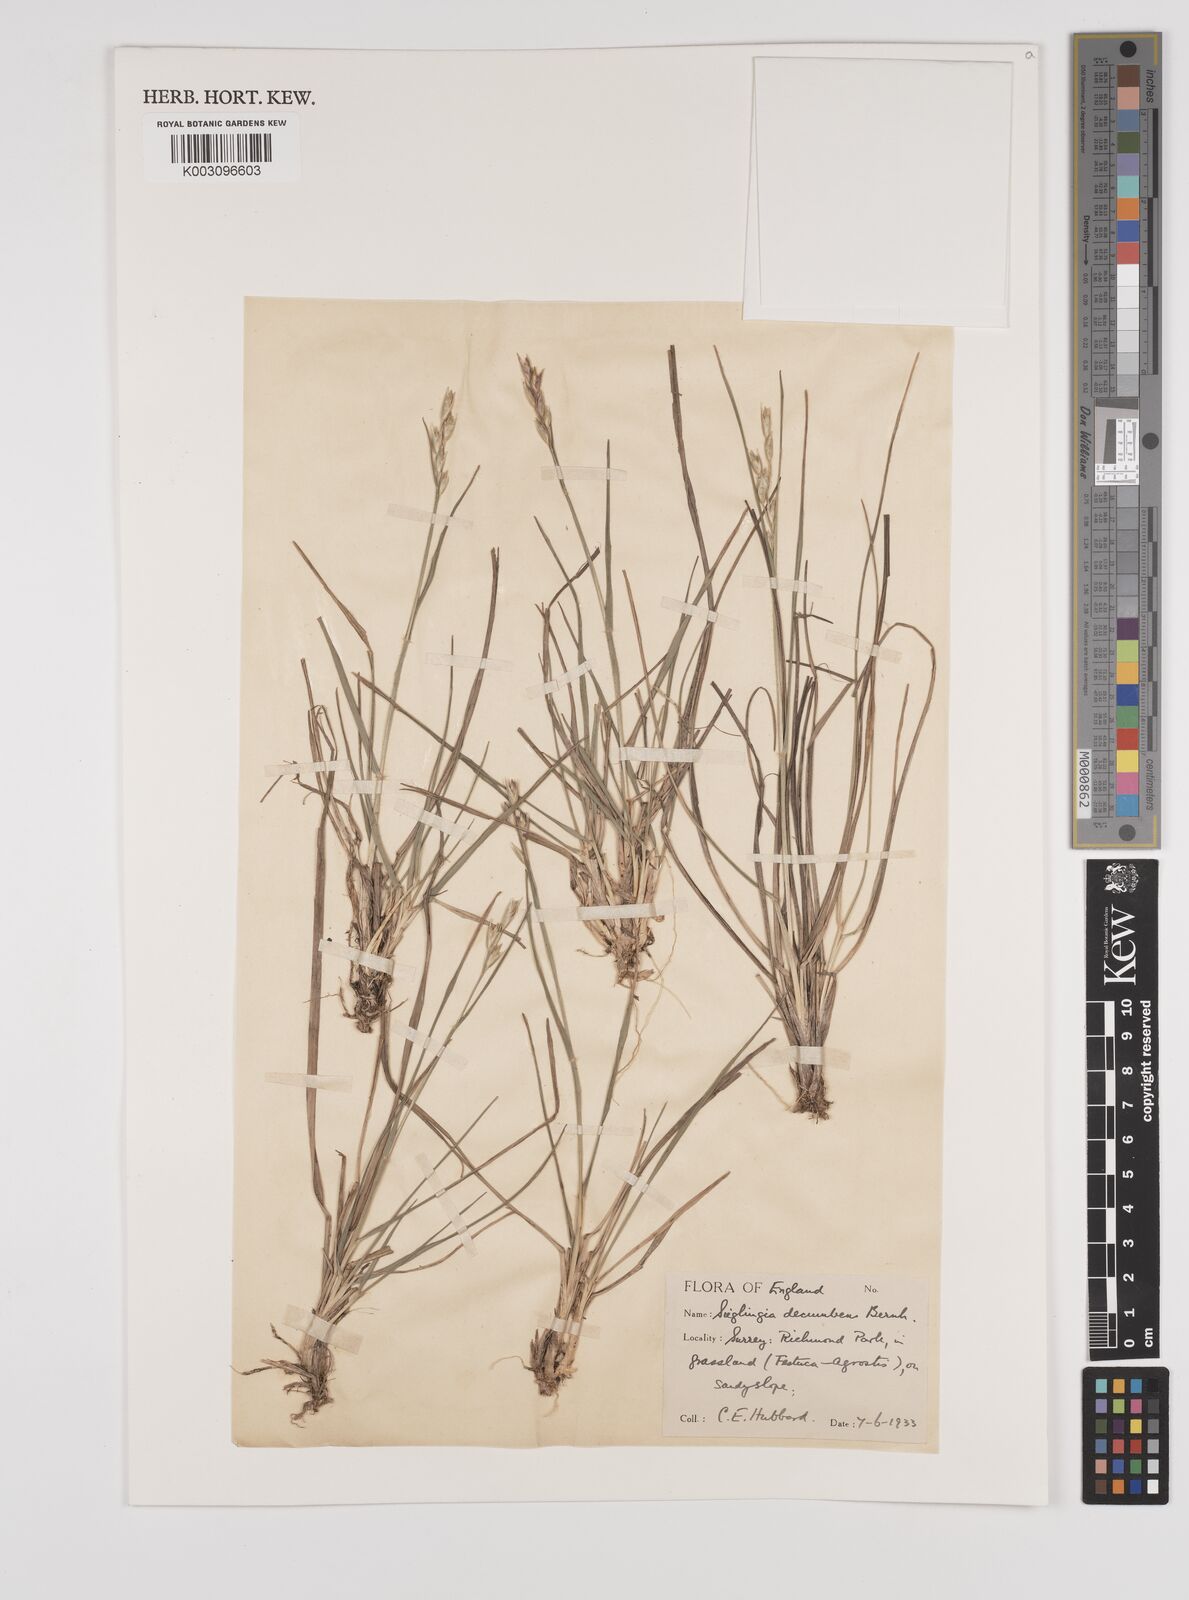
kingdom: Plantae
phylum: Tracheophyta
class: Liliopsida
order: Poales
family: Poaceae
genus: Danthonia
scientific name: Danthonia decumbens
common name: Common heathgrass
